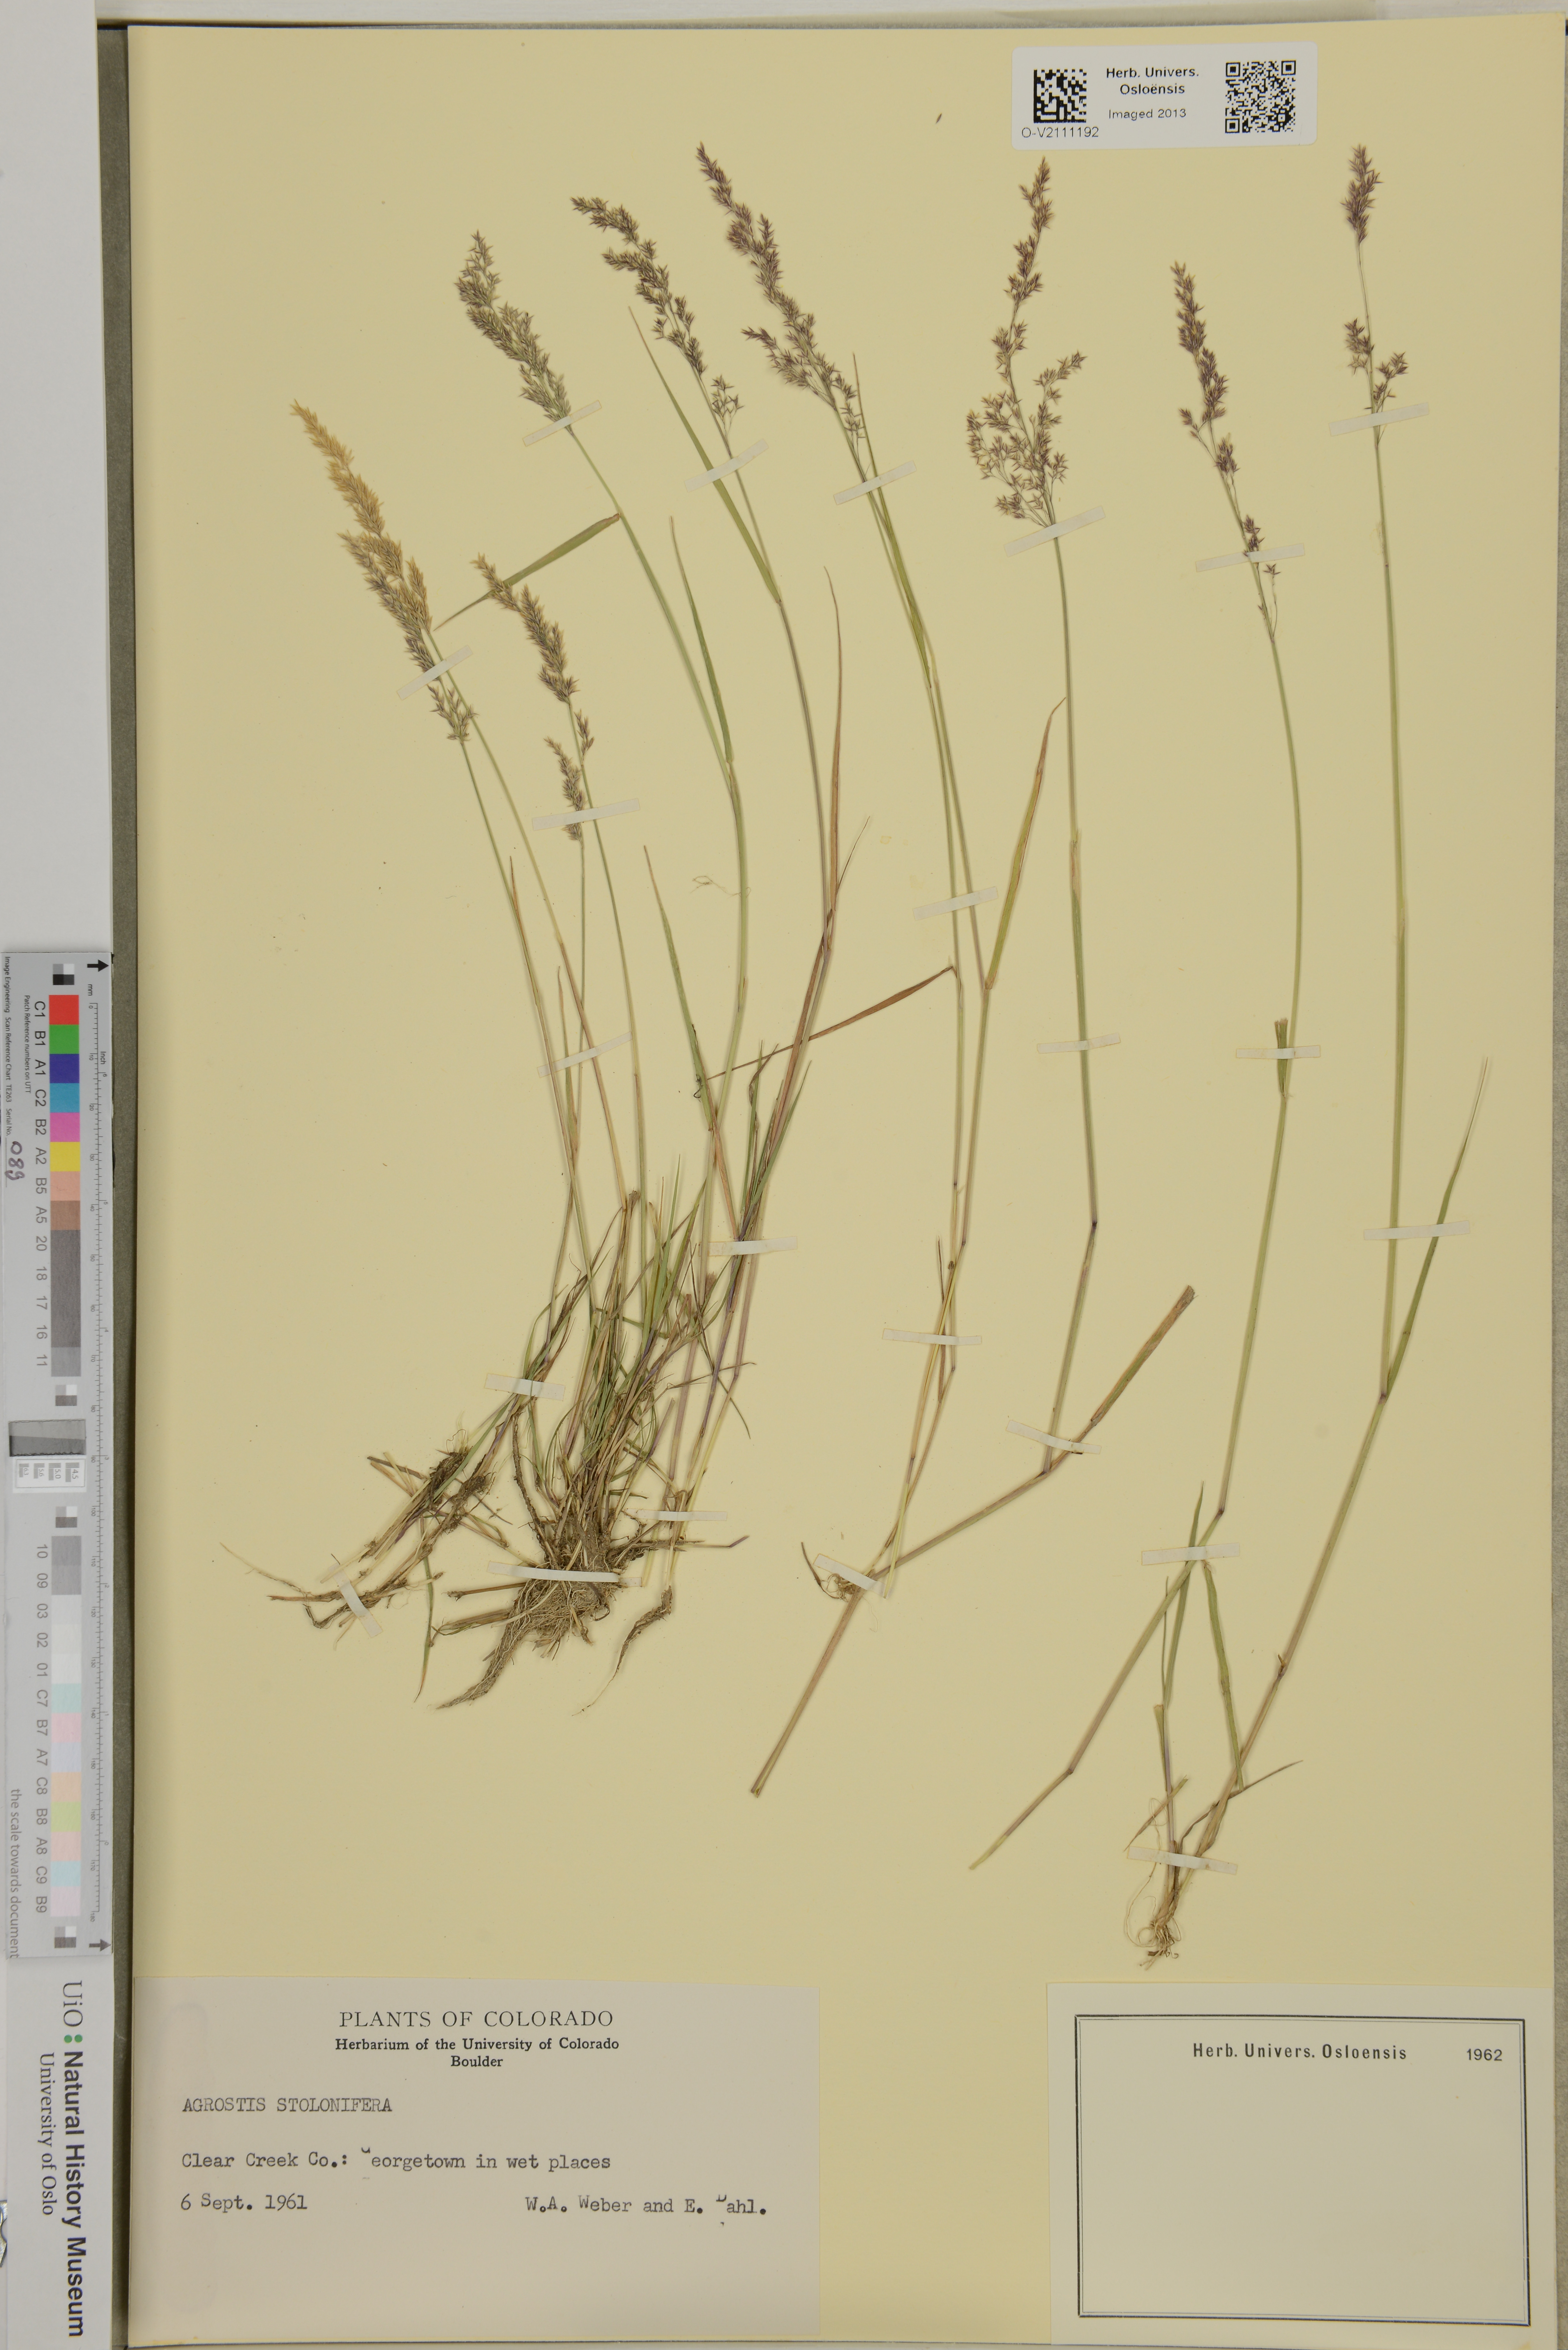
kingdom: Plantae
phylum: Tracheophyta
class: Liliopsida
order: Poales
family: Poaceae
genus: Agrostis
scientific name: Agrostis stolonifera
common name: Creeping bentgrass
